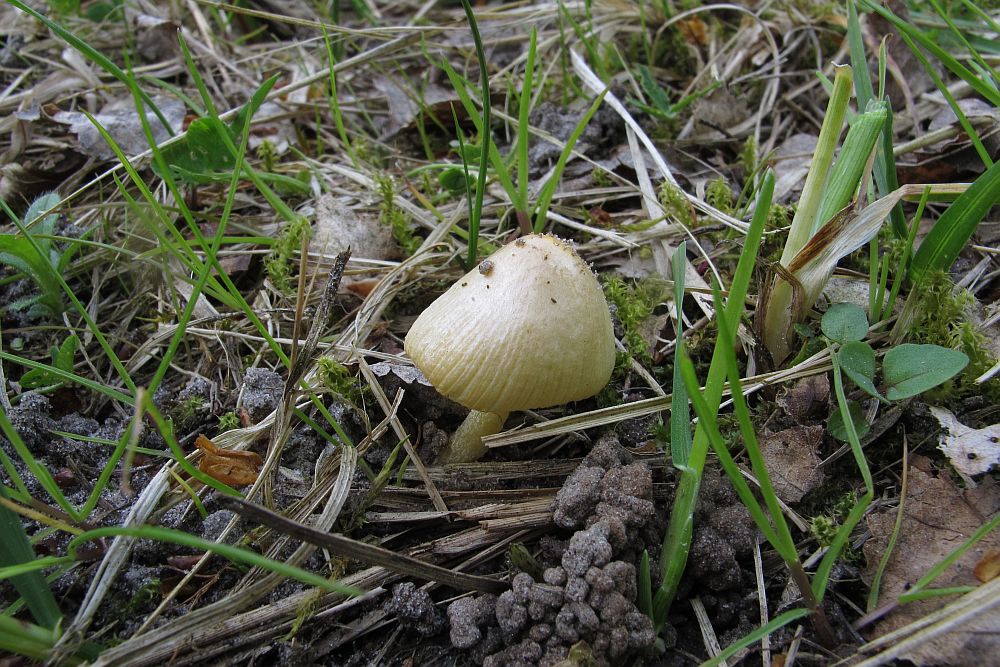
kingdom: Fungi
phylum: Basidiomycota
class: Agaricomycetes
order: Agaricales
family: Bolbitiaceae
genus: Bolbitius
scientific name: Bolbitius titubans
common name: almindelig gulhat
